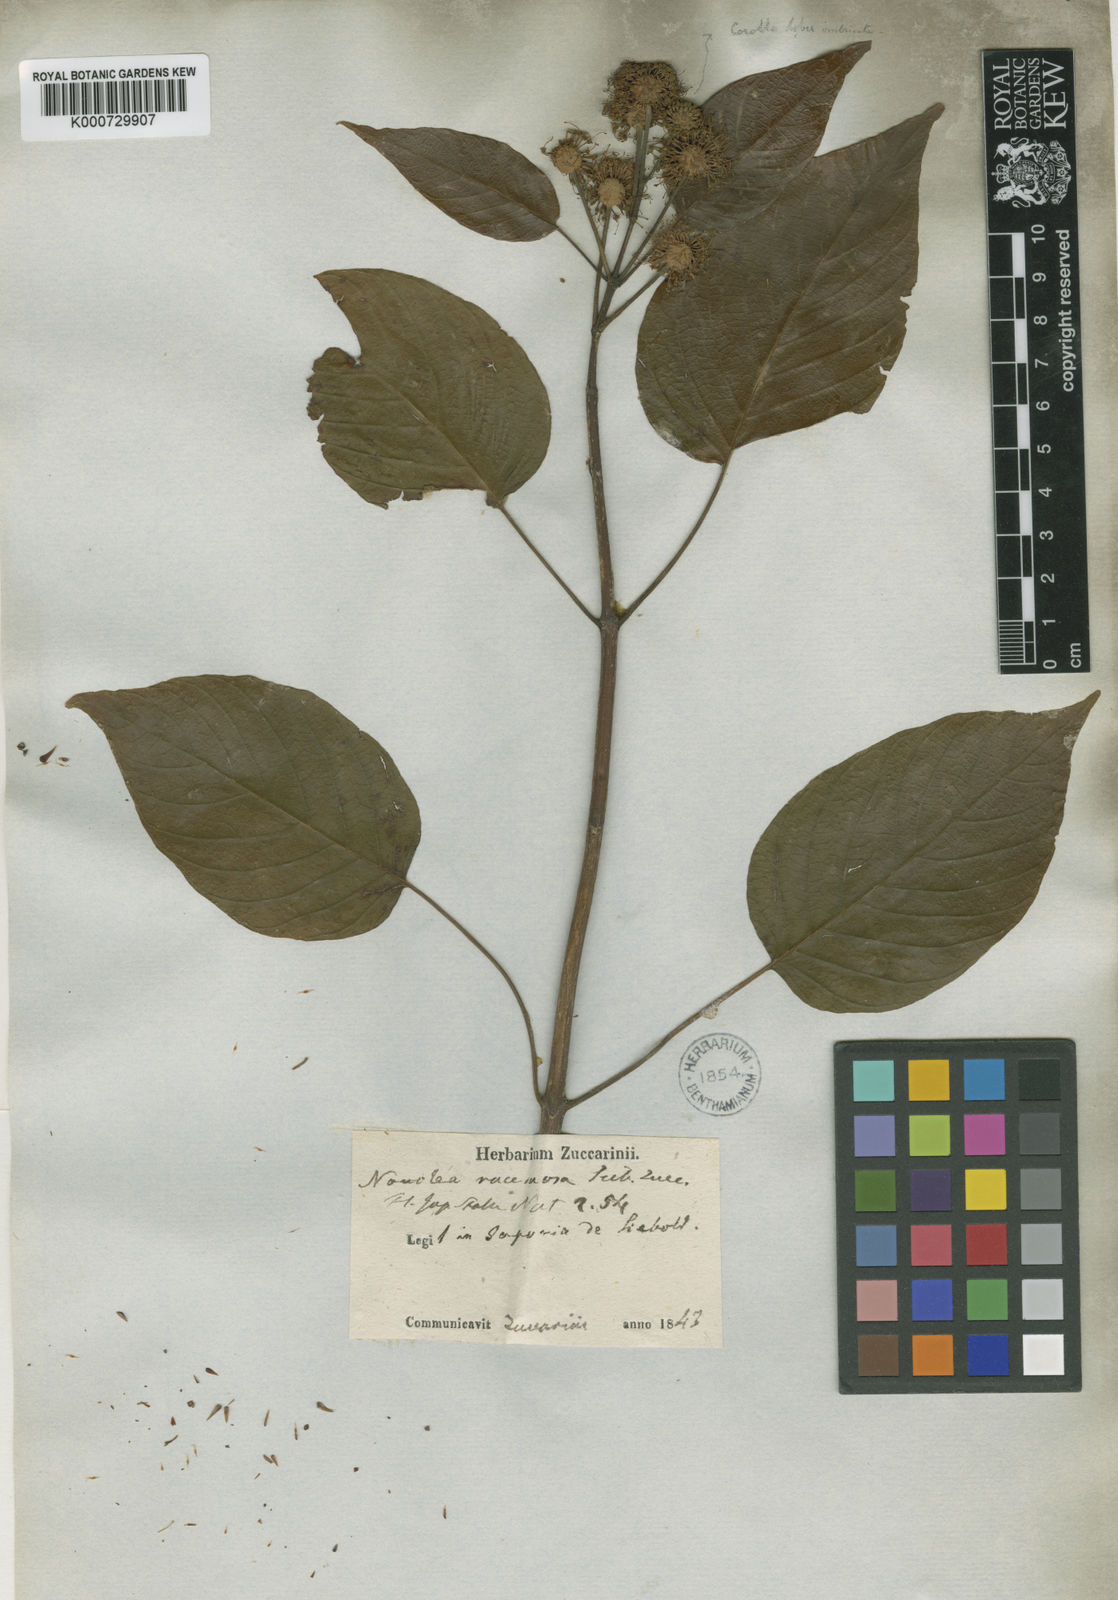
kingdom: Plantae
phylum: Tracheophyta
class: Magnoliopsida
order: Gentianales
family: Rubiaceae
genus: Adina
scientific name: Adina racemosa
